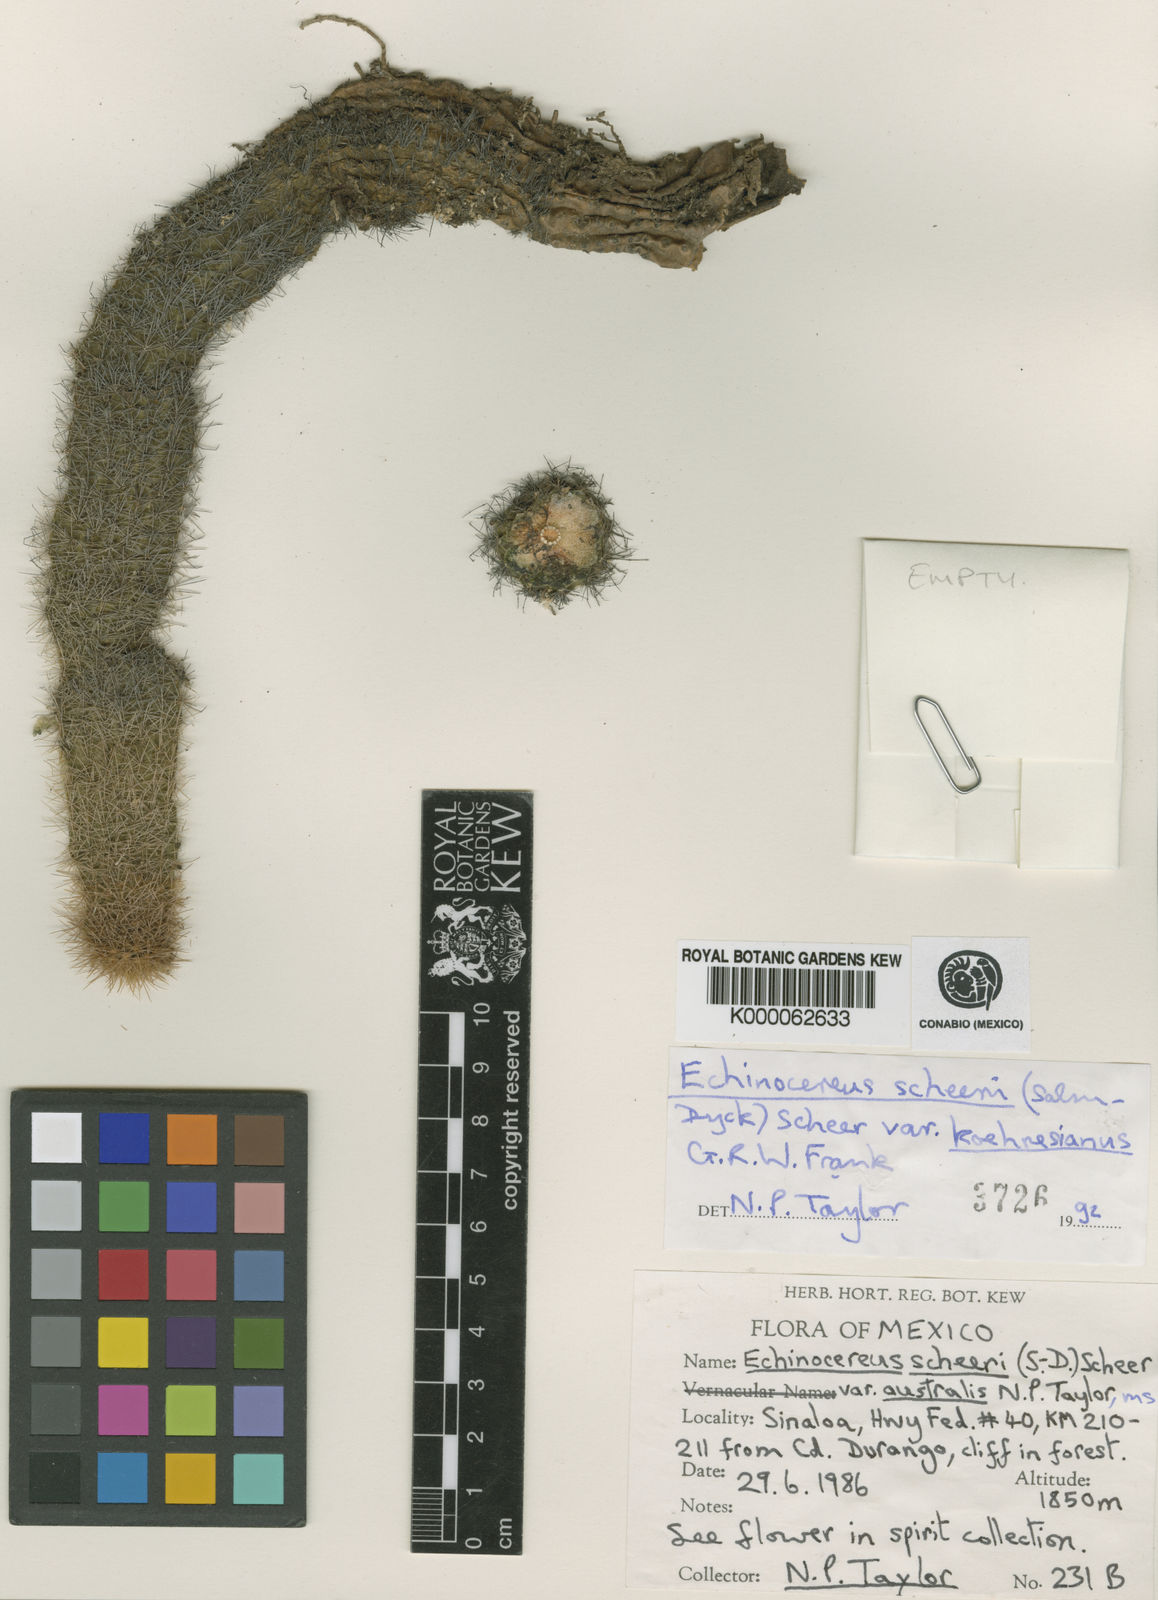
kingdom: Plantae
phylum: Tracheophyta
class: Magnoliopsida
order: Caryophyllales
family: Cactaceae
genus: Echinocereus
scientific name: Echinocereus ortegae
